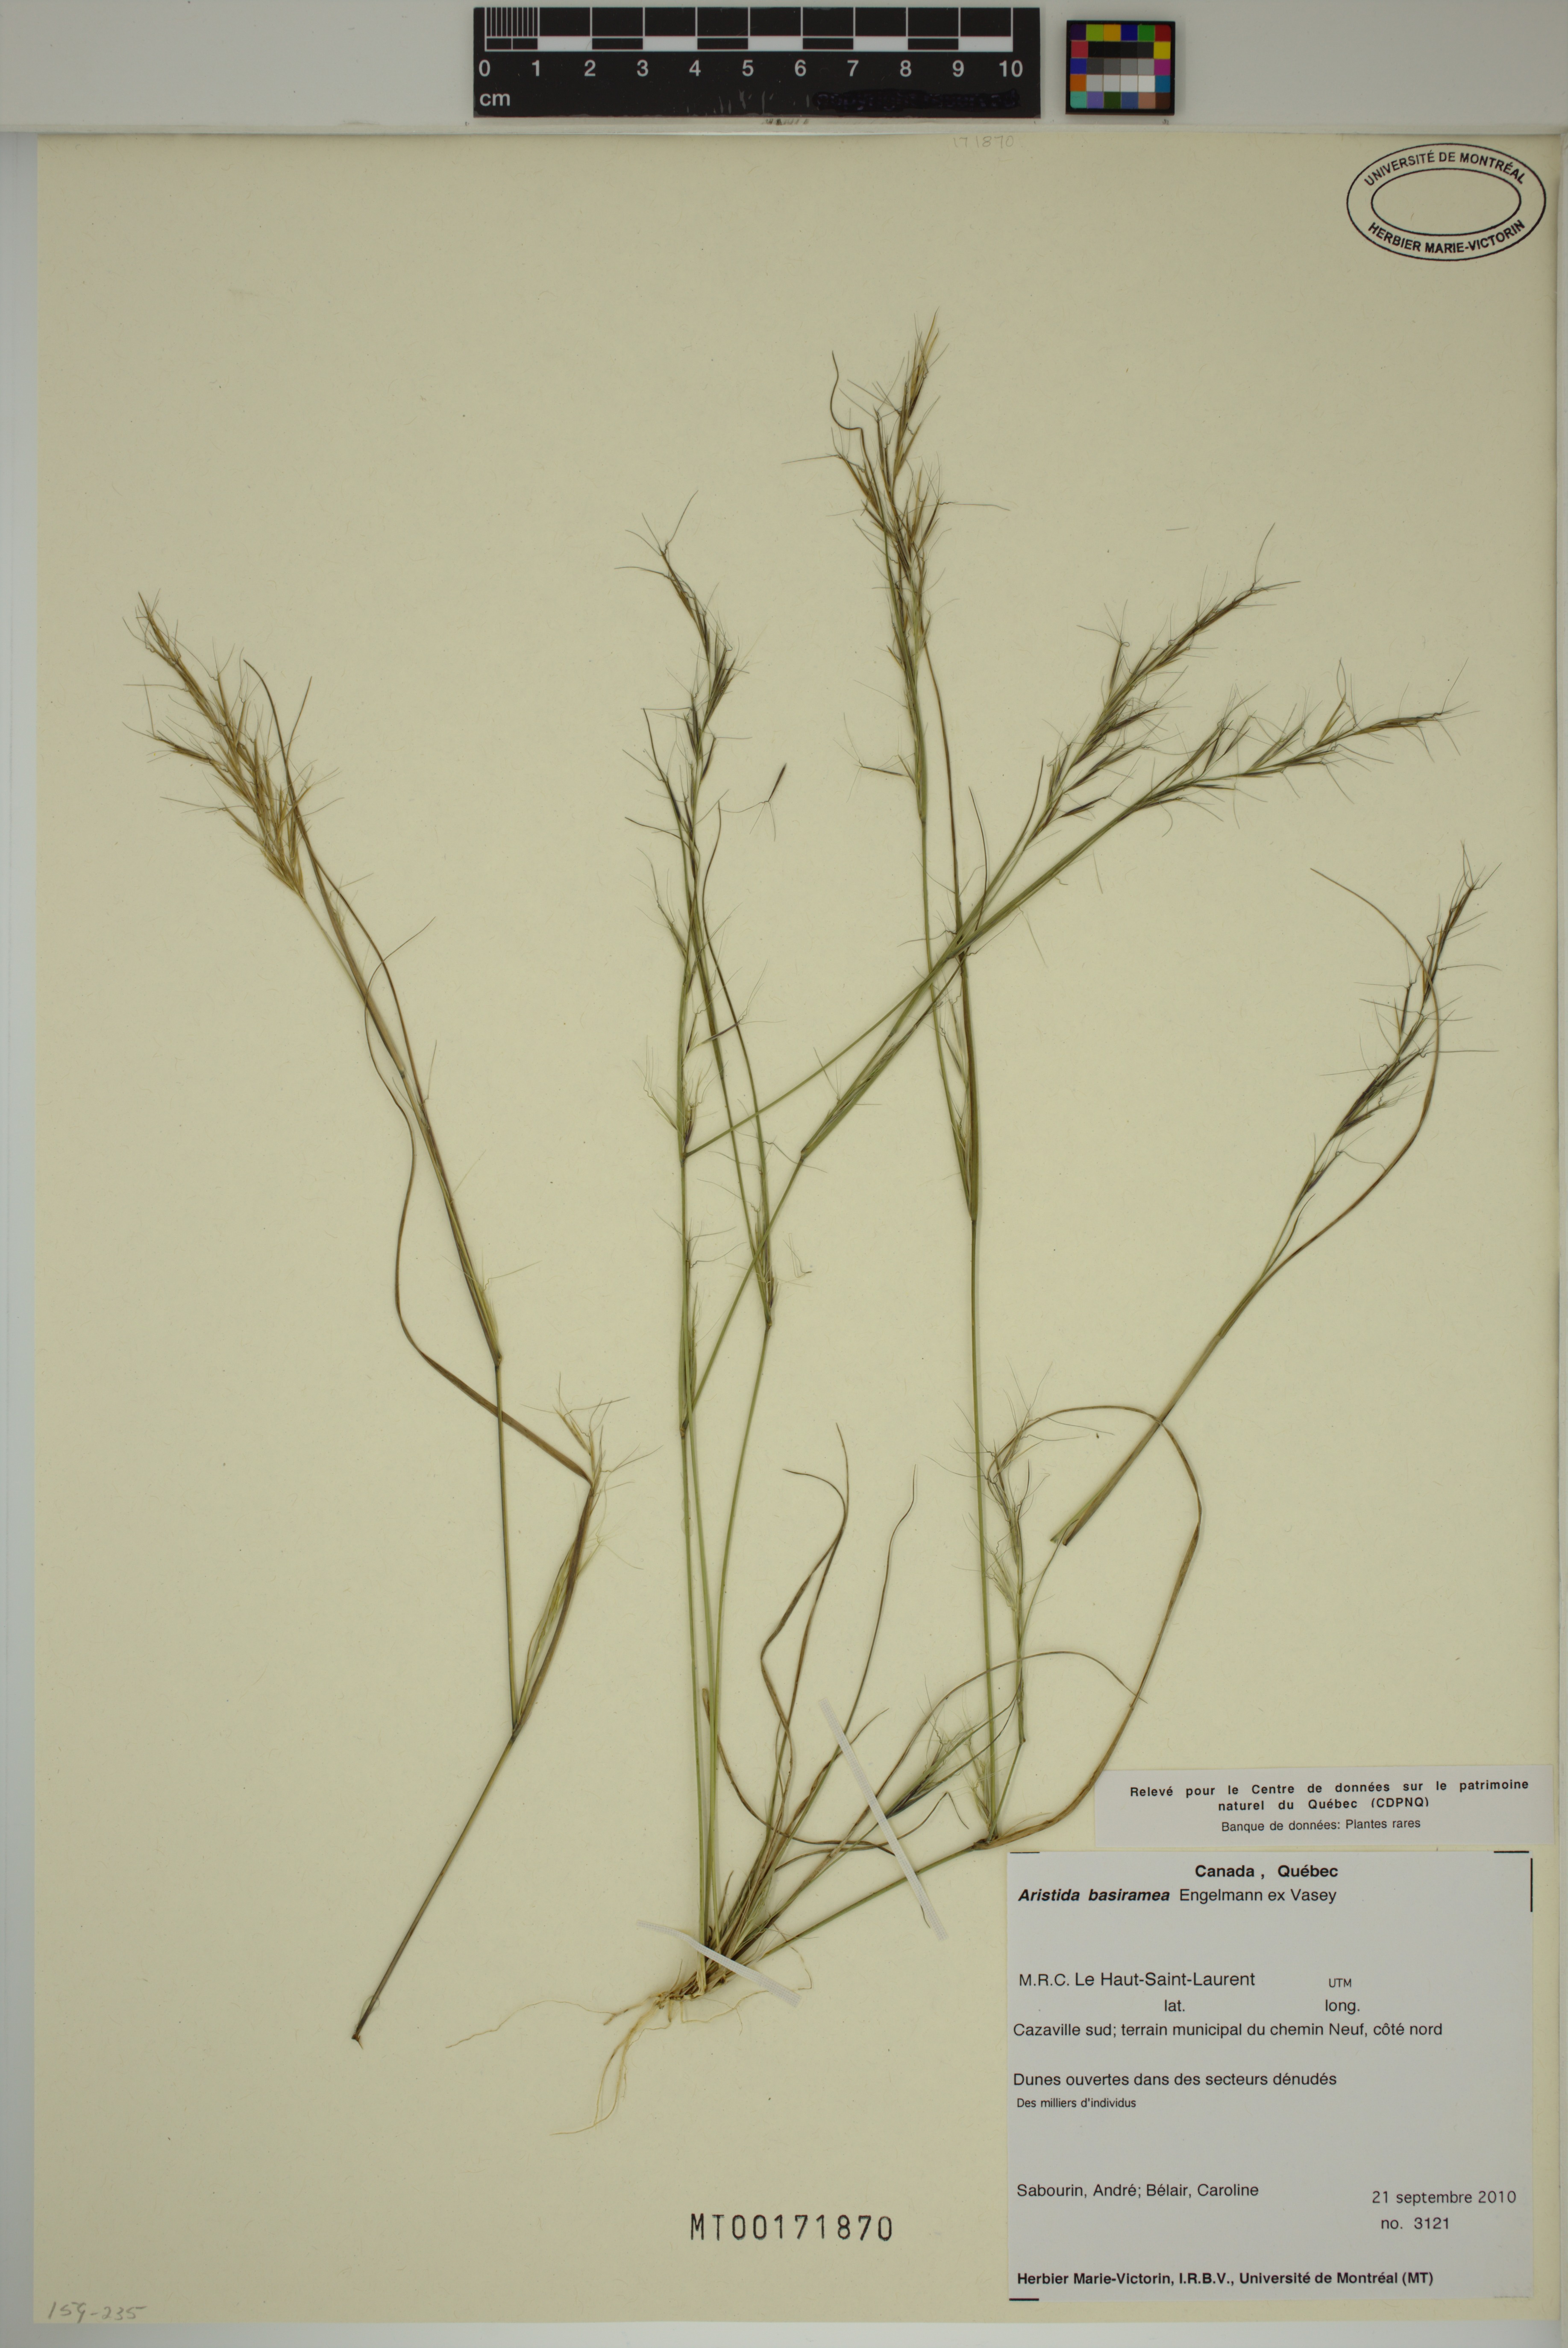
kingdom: Plantae
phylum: Tracheophyta
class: Liliopsida
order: Poales
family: Poaceae
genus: Aristida
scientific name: Aristida basiramea
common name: Forked three-awned grass
